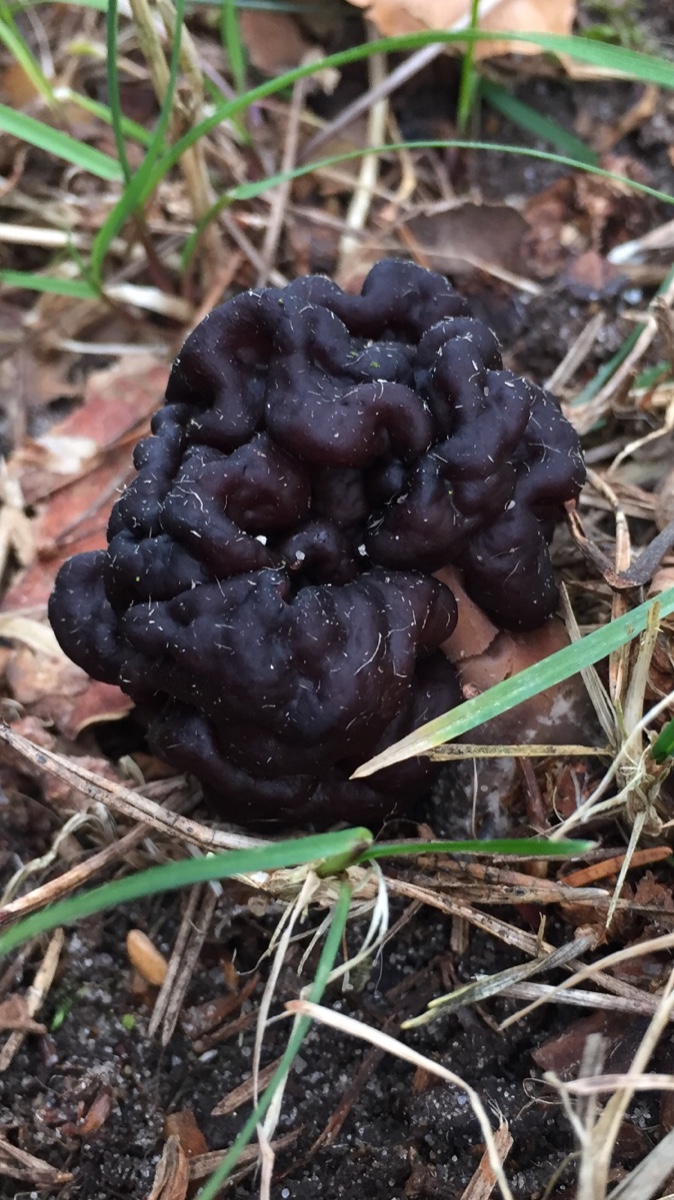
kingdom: Fungi
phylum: Ascomycota
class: Pezizomycetes
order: Pezizales
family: Discinaceae
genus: Gyromitra
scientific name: Gyromitra esculenta
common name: ægte stenmorkel
